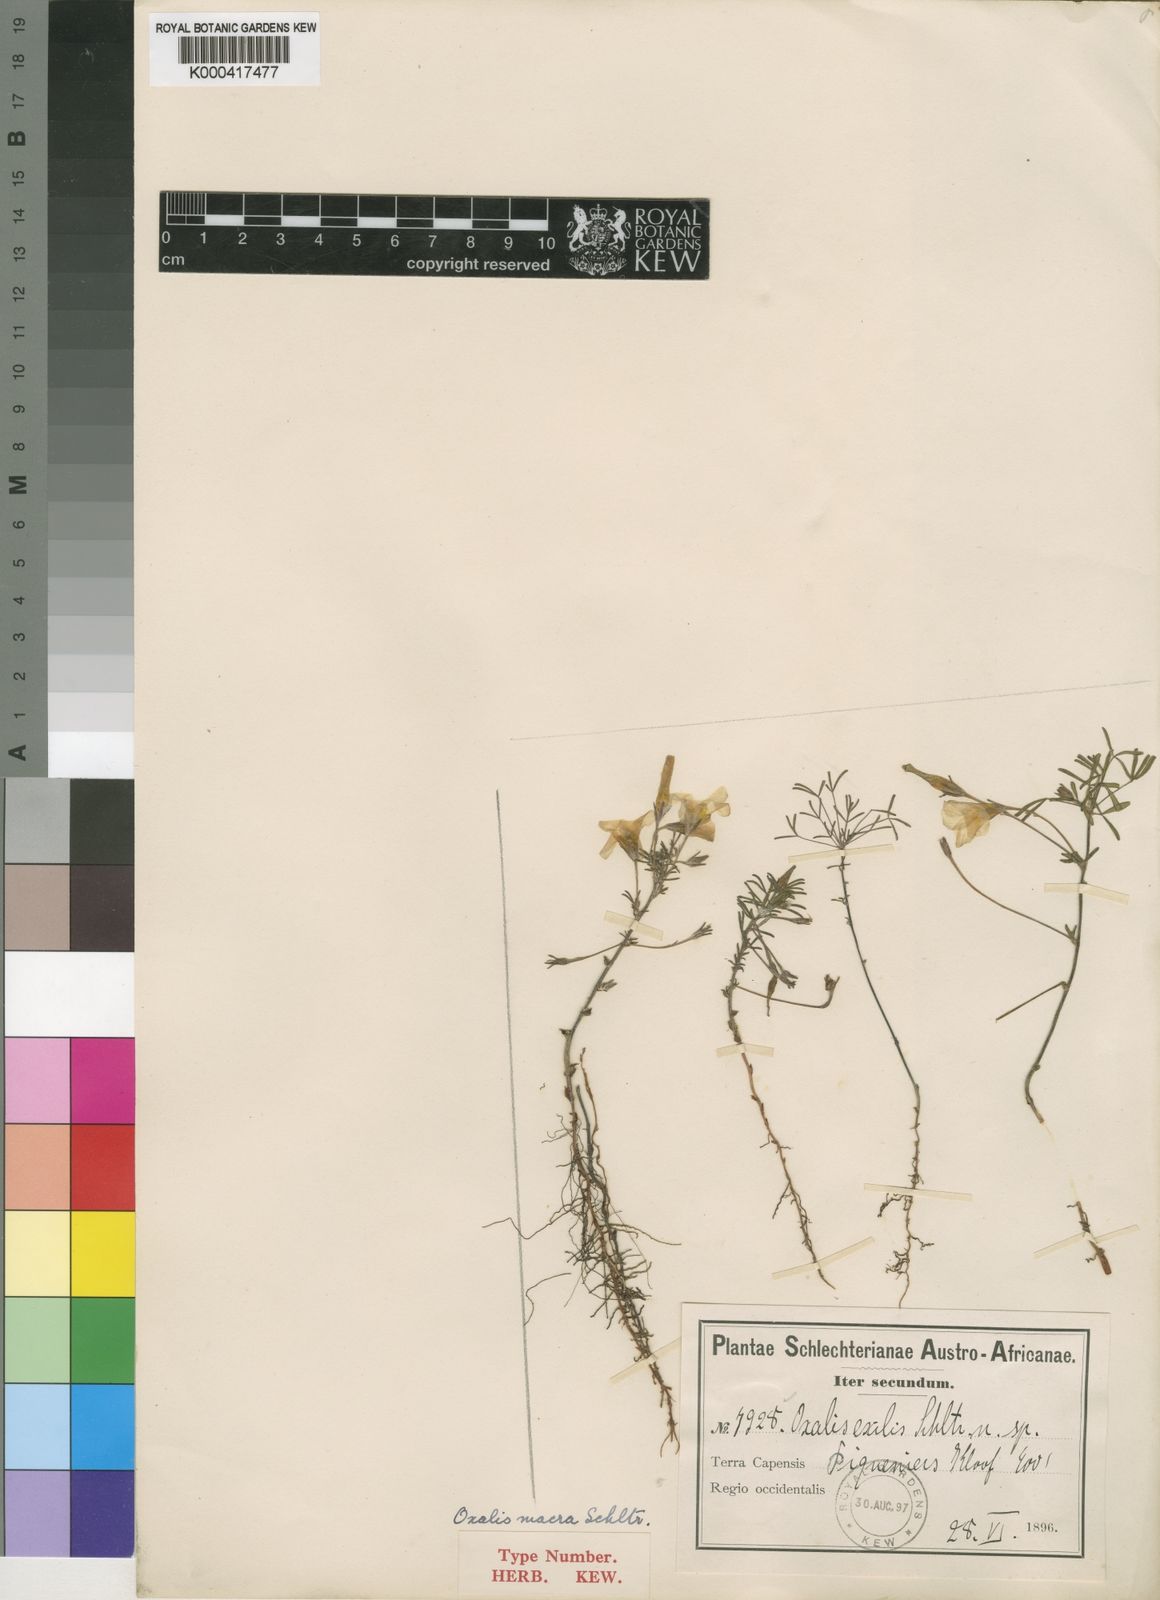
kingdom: Plantae
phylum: Tracheophyta
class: Magnoliopsida
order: Oxalidales
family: Oxalidaceae
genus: Oxalis
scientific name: Oxalis macra
